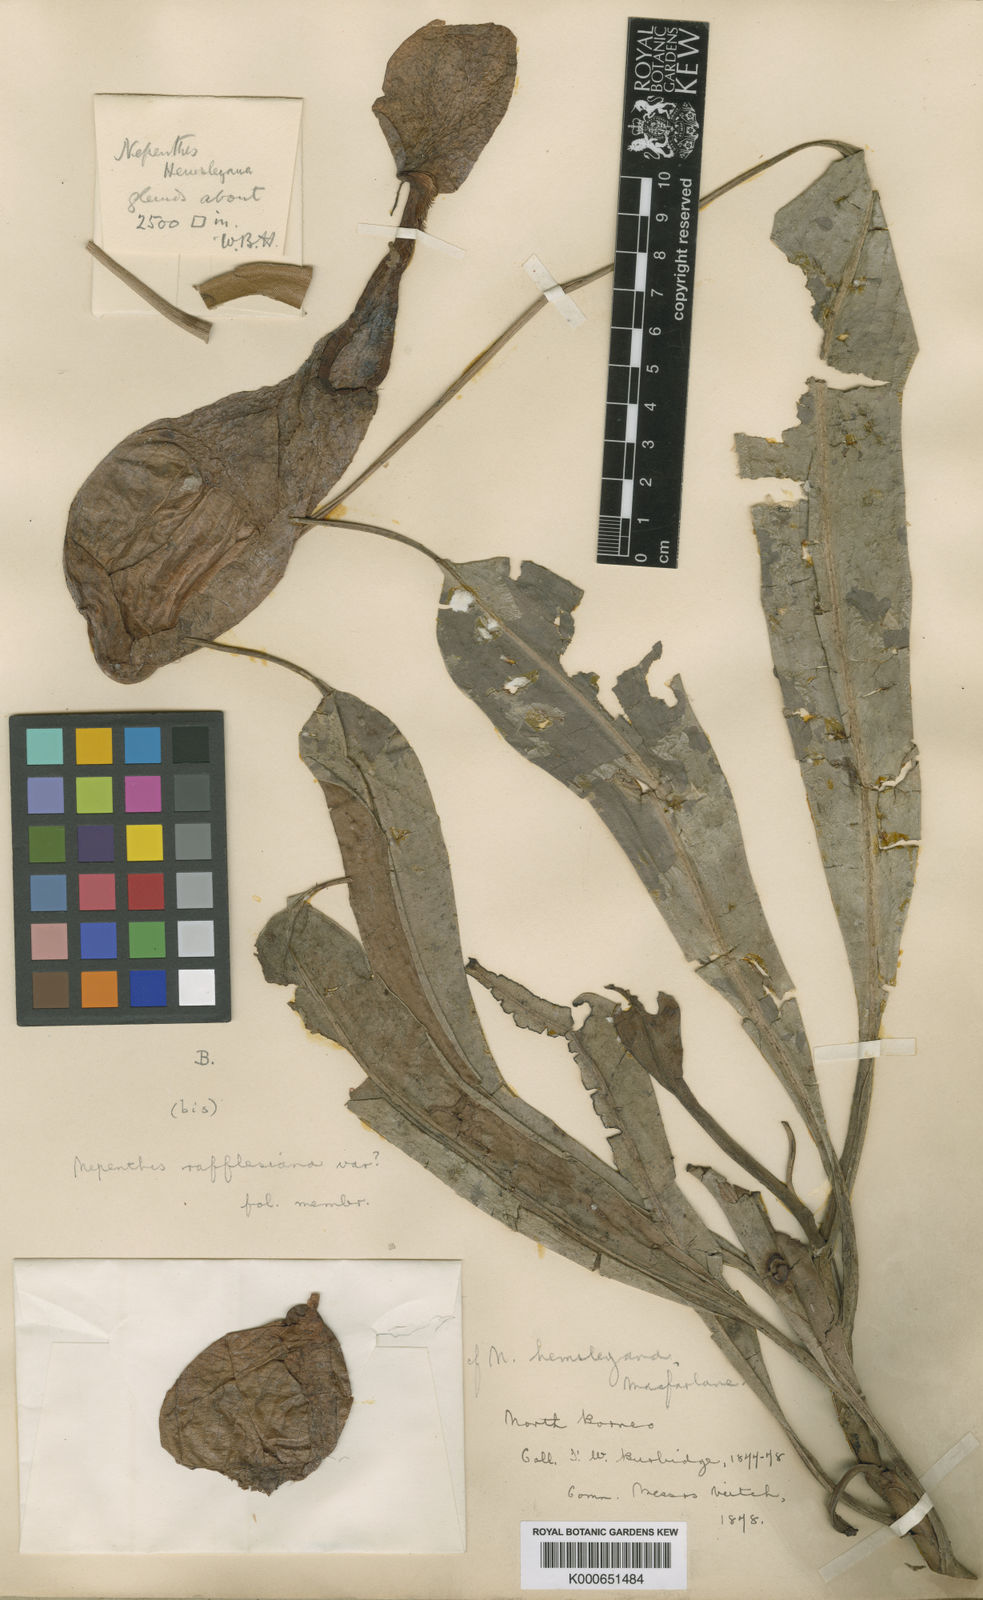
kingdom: Plantae
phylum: Tracheophyta
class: Magnoliopsida
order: Caryophyllales
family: Nepenthaceae
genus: Nepenthes
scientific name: Nepenthes rafflesiana
